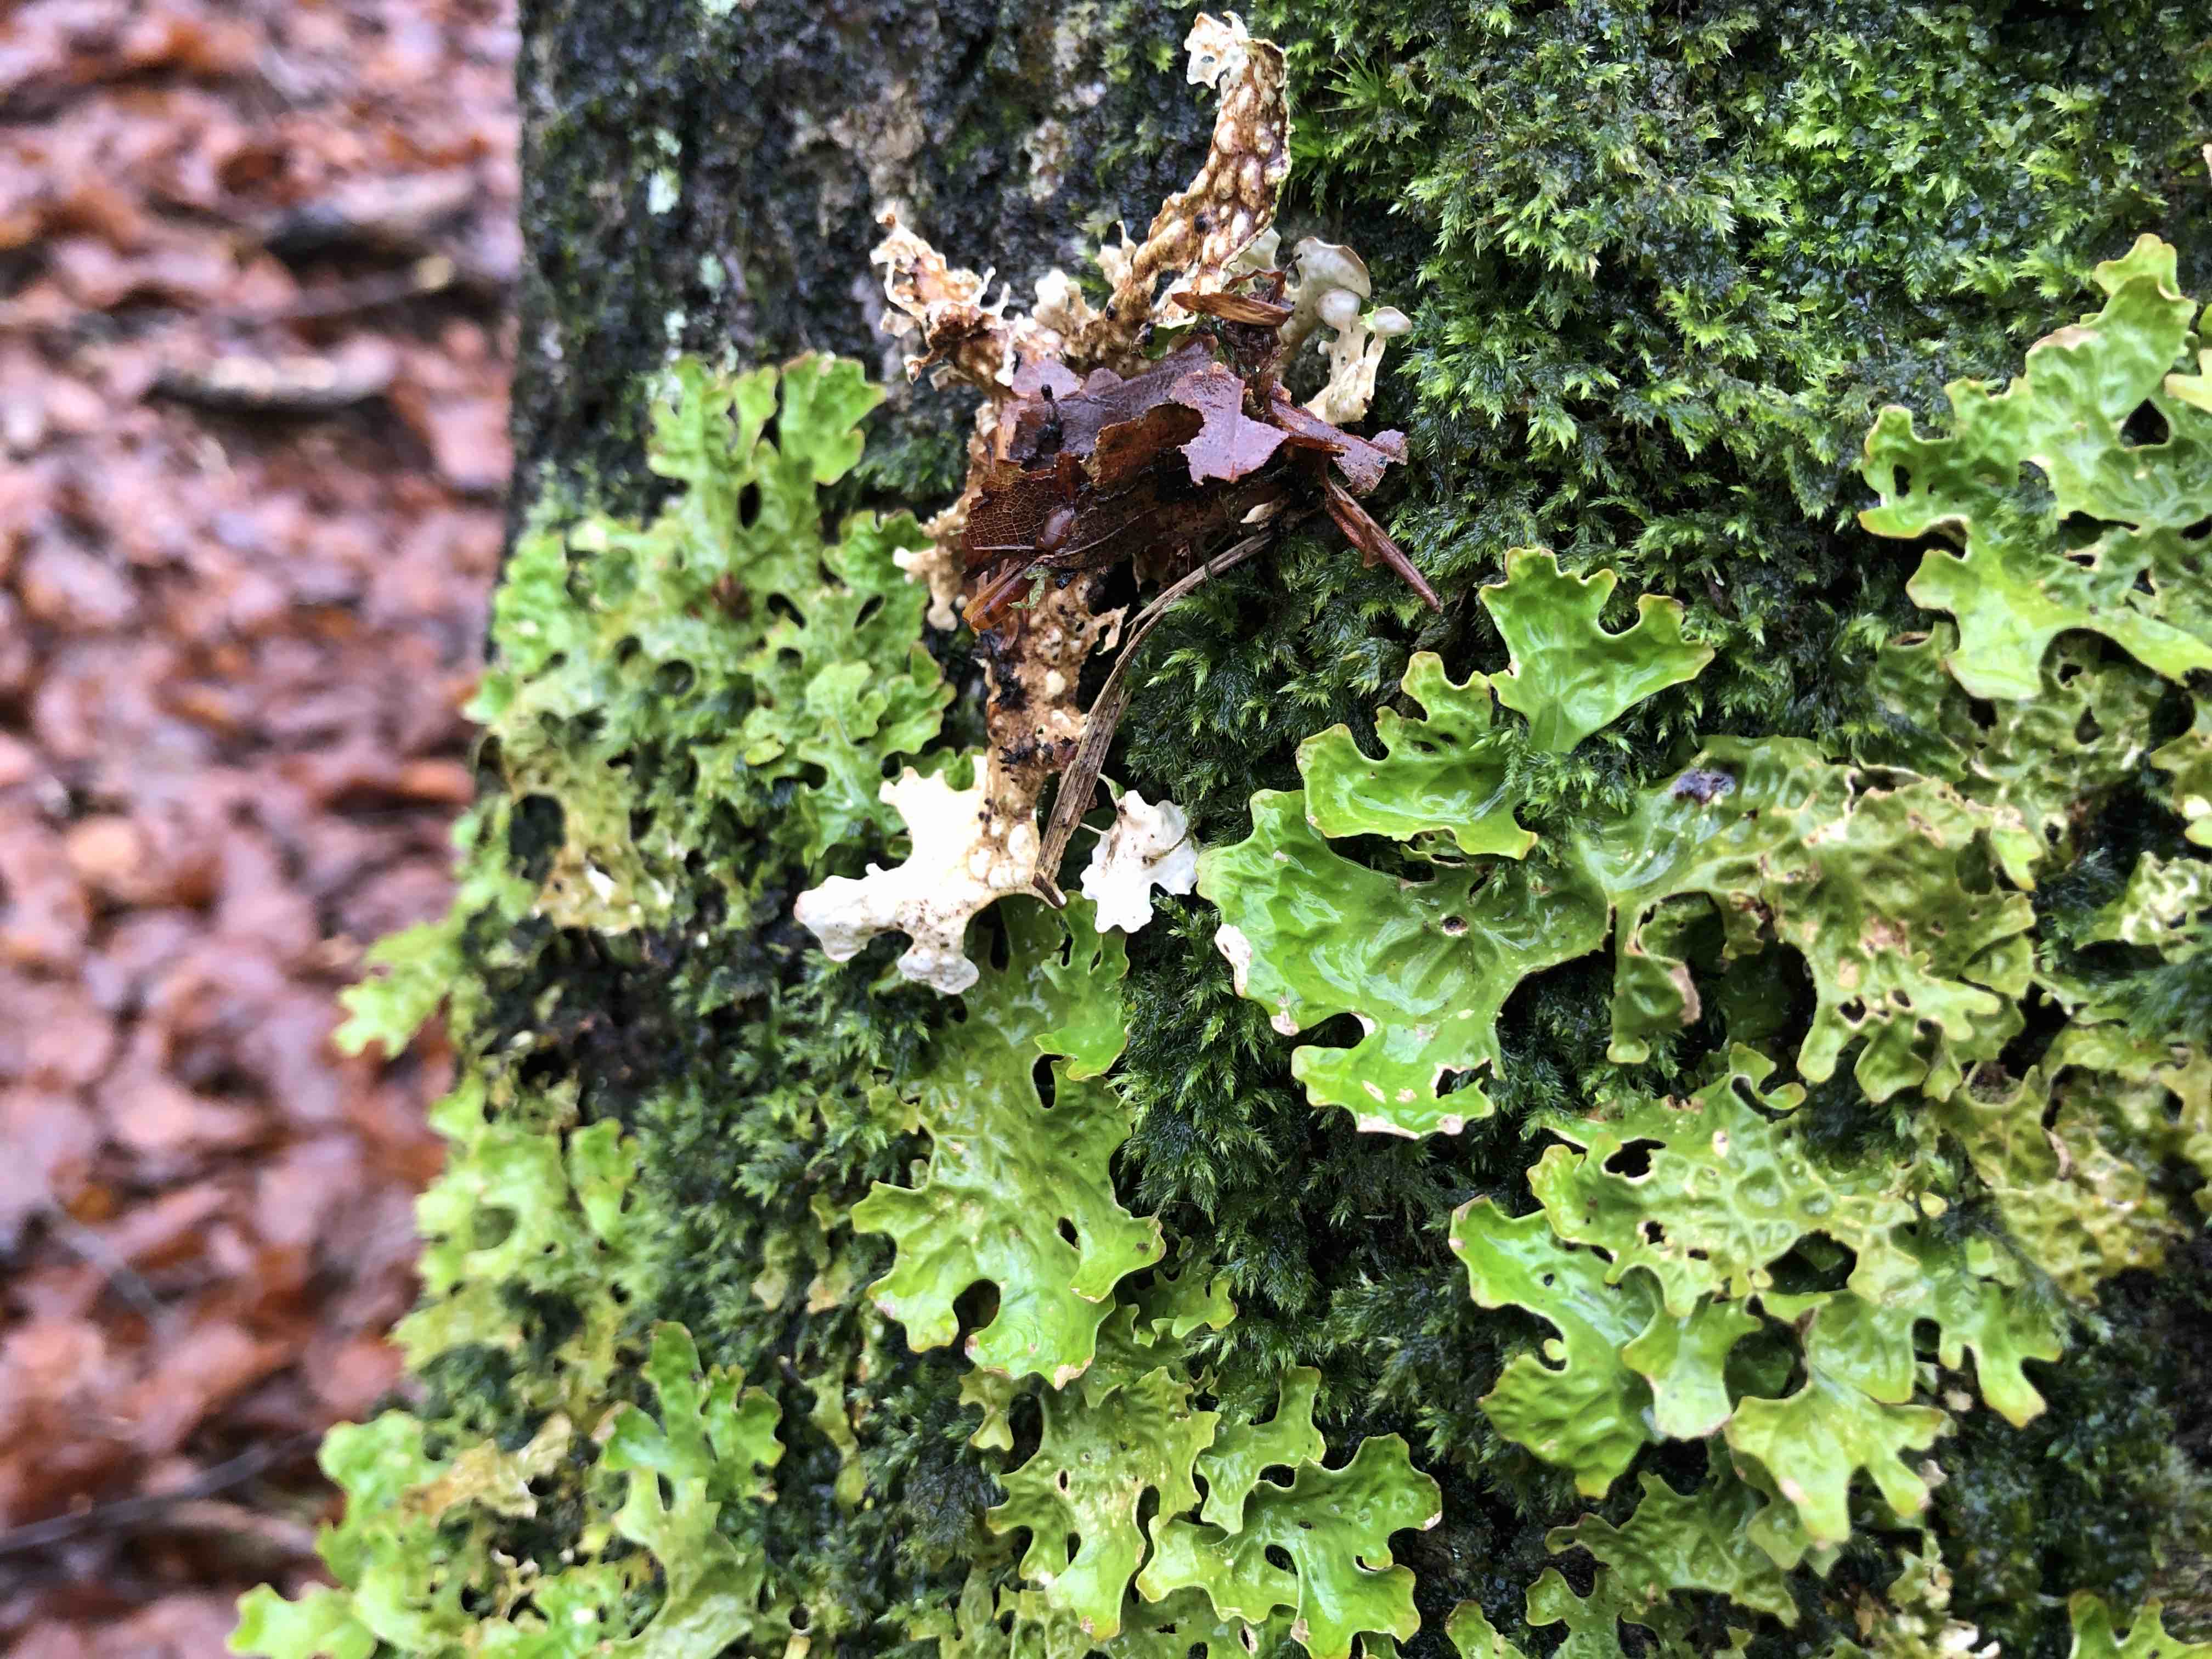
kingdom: Fungi
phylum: Ascomycota
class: Lecanoromycetes
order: Peltigerales
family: Lobariaceae
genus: Lobaria
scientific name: Lobaria pulmonaria
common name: almindelig lungelav
